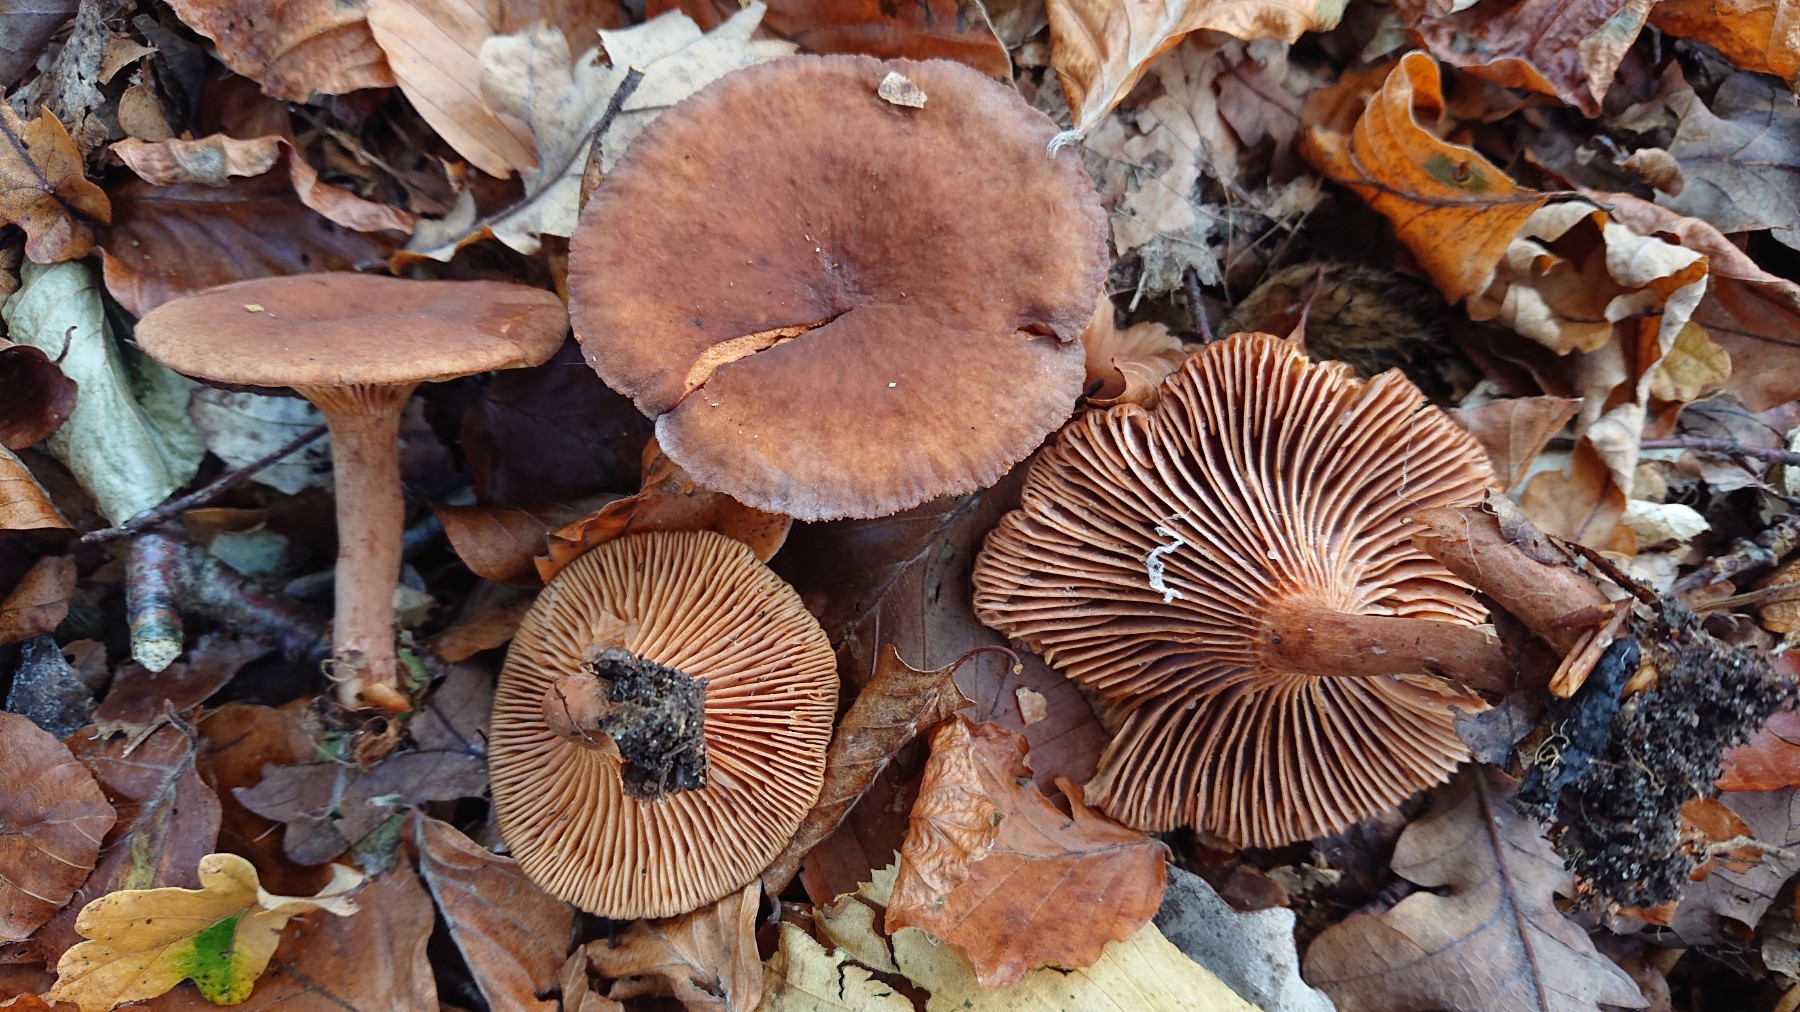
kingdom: Fungi
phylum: Basidiomycota
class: Agaricomycetes
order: Russulales
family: Russulaceae
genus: Lactarius
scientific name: Lactarius serifluus
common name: tæge-mælkehat
